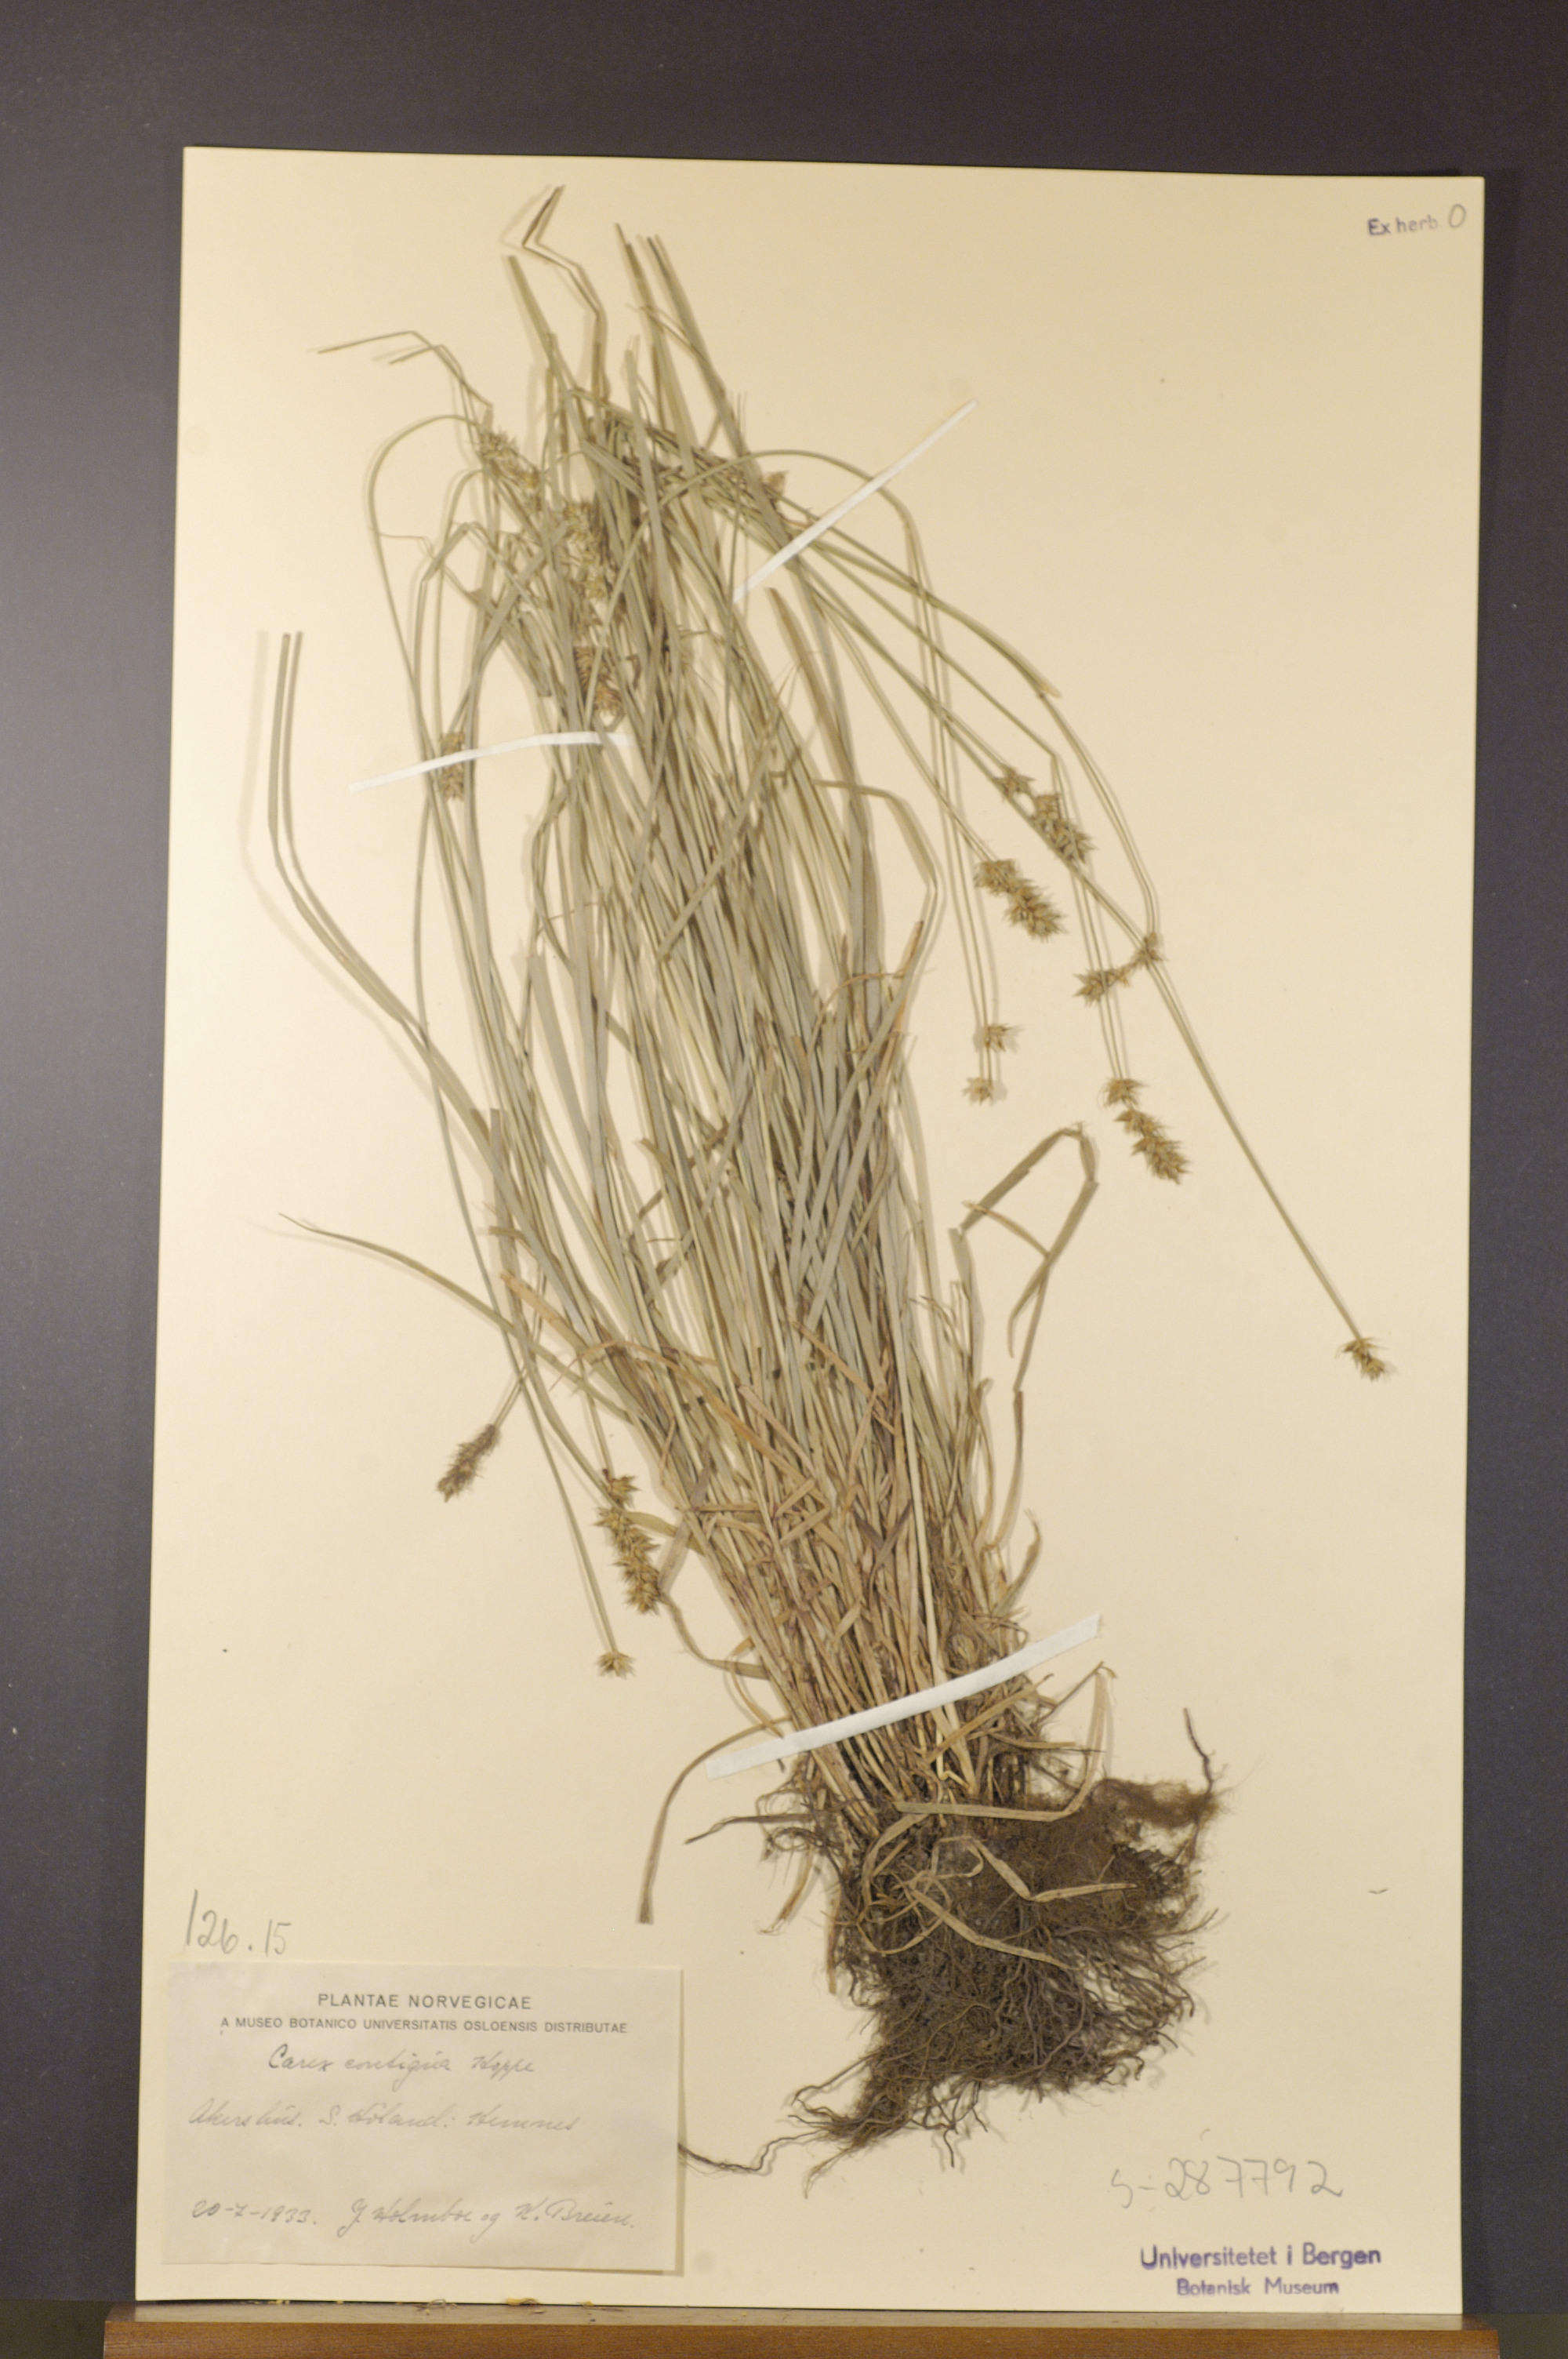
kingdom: Plantae
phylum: Tracheophyta
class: Liliopsida
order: Poales
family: Cyperaceae
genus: Carex
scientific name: Carex spicata
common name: Spiked sedge
